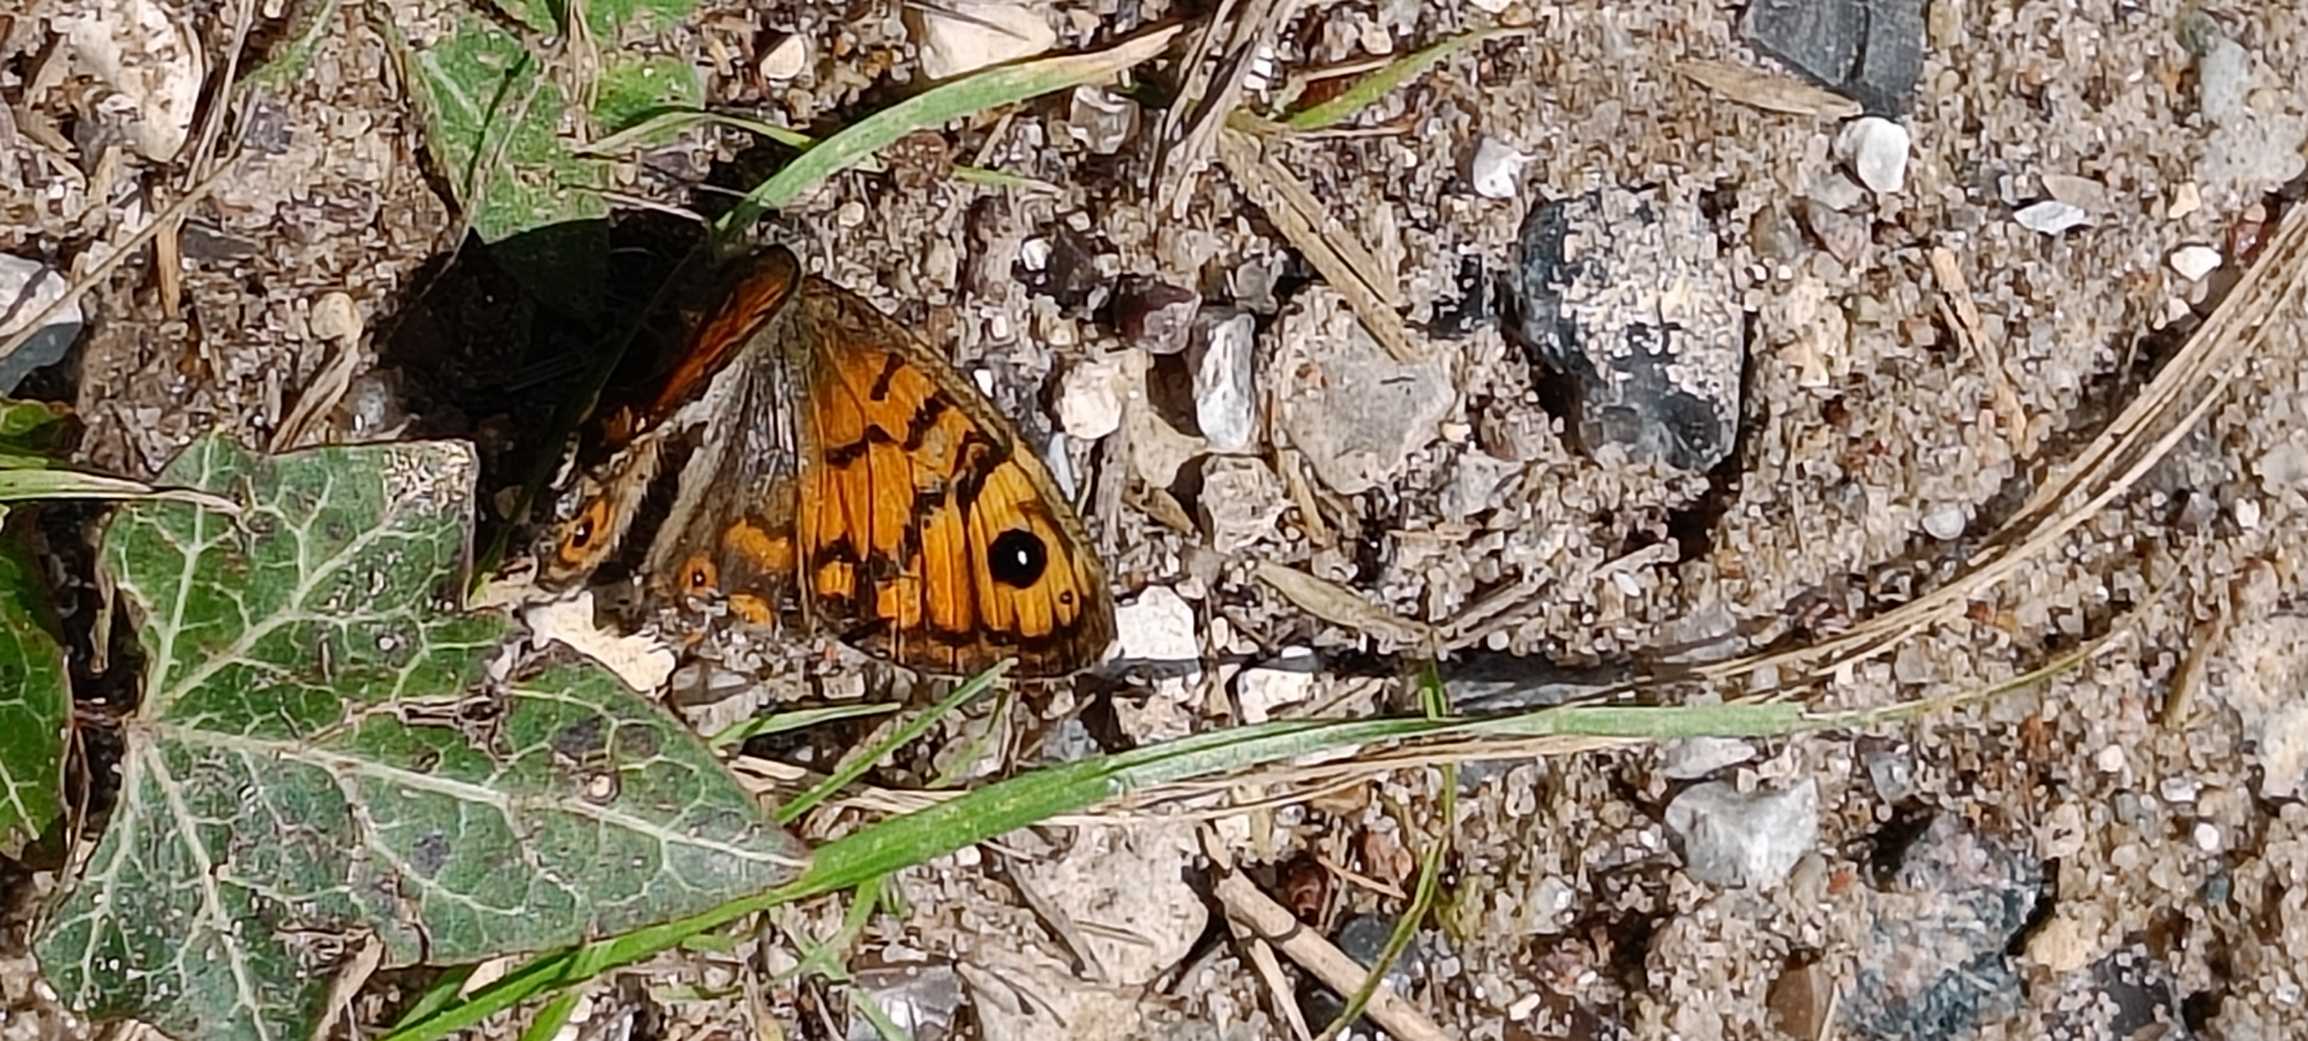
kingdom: Animalia
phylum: Arthropoda
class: Insecta
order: Lepidoptera
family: Nymphalidae
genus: Pararge
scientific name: Pararge Lasiommata megera
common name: Vejrandøje
